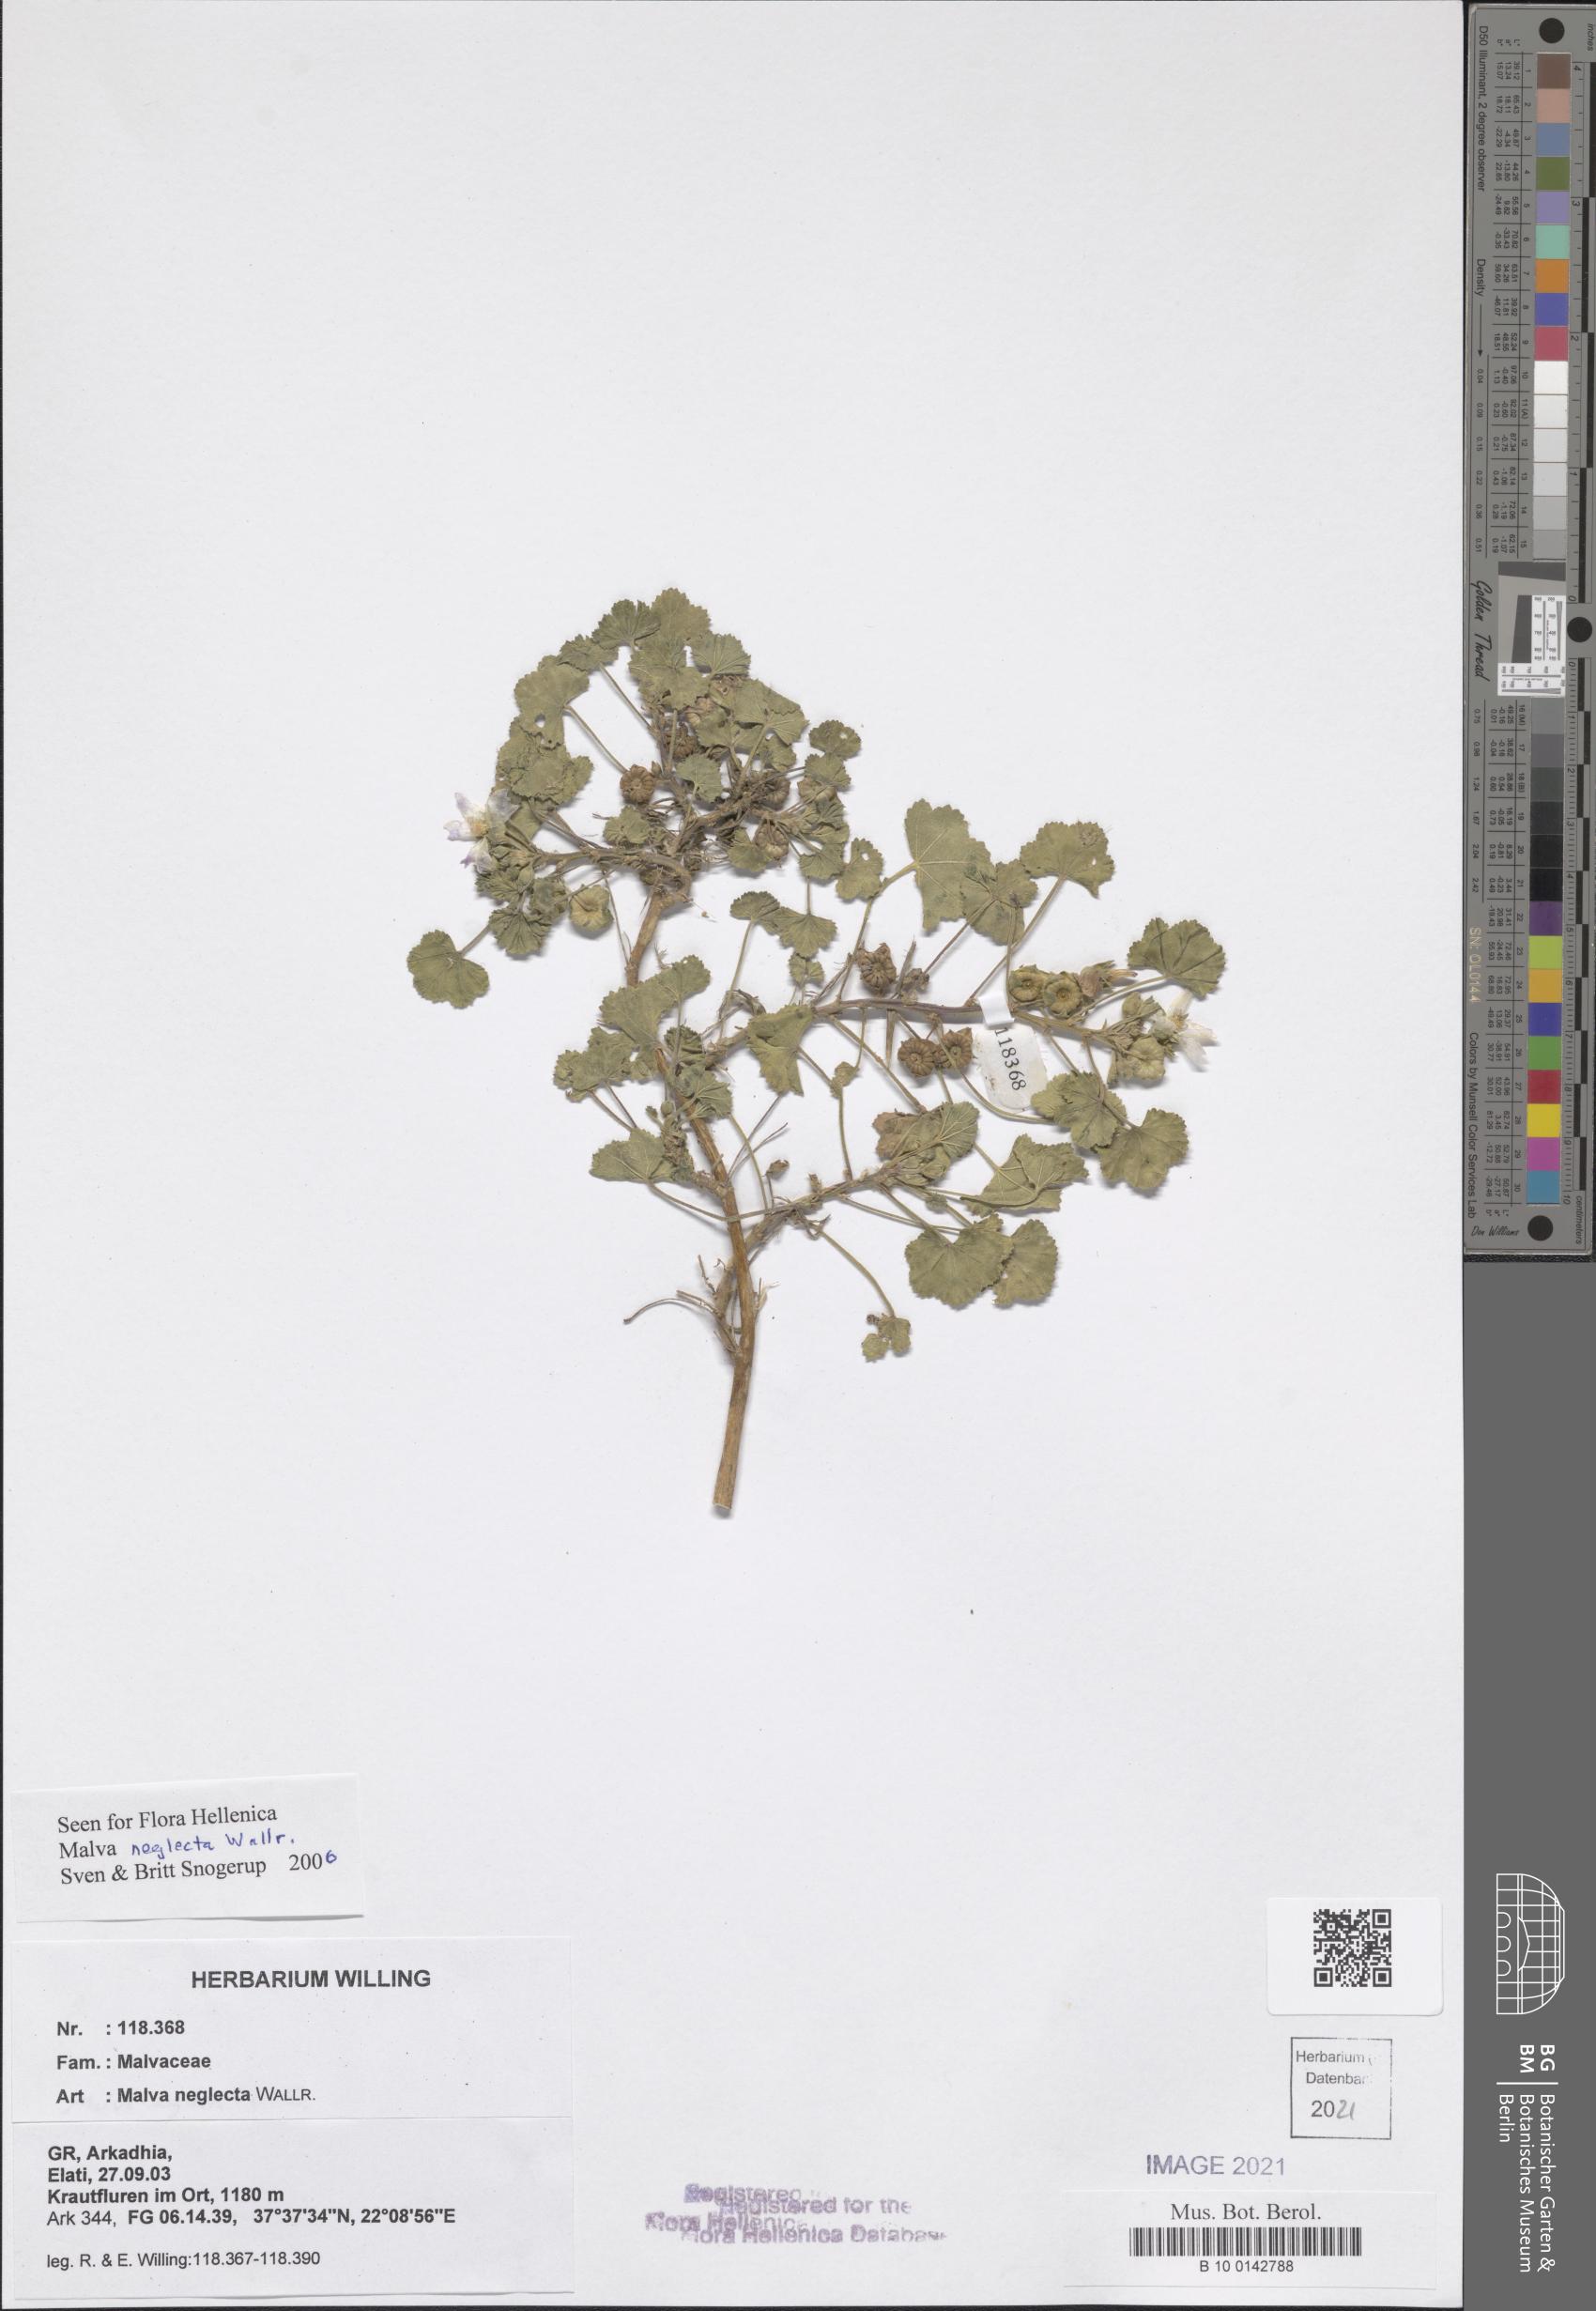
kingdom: Plantae
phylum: Tracheophyta
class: Magnoliopsida
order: Malvales
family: Malvaceae
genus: Malva
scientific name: Malva neglecta
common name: Common mallow
